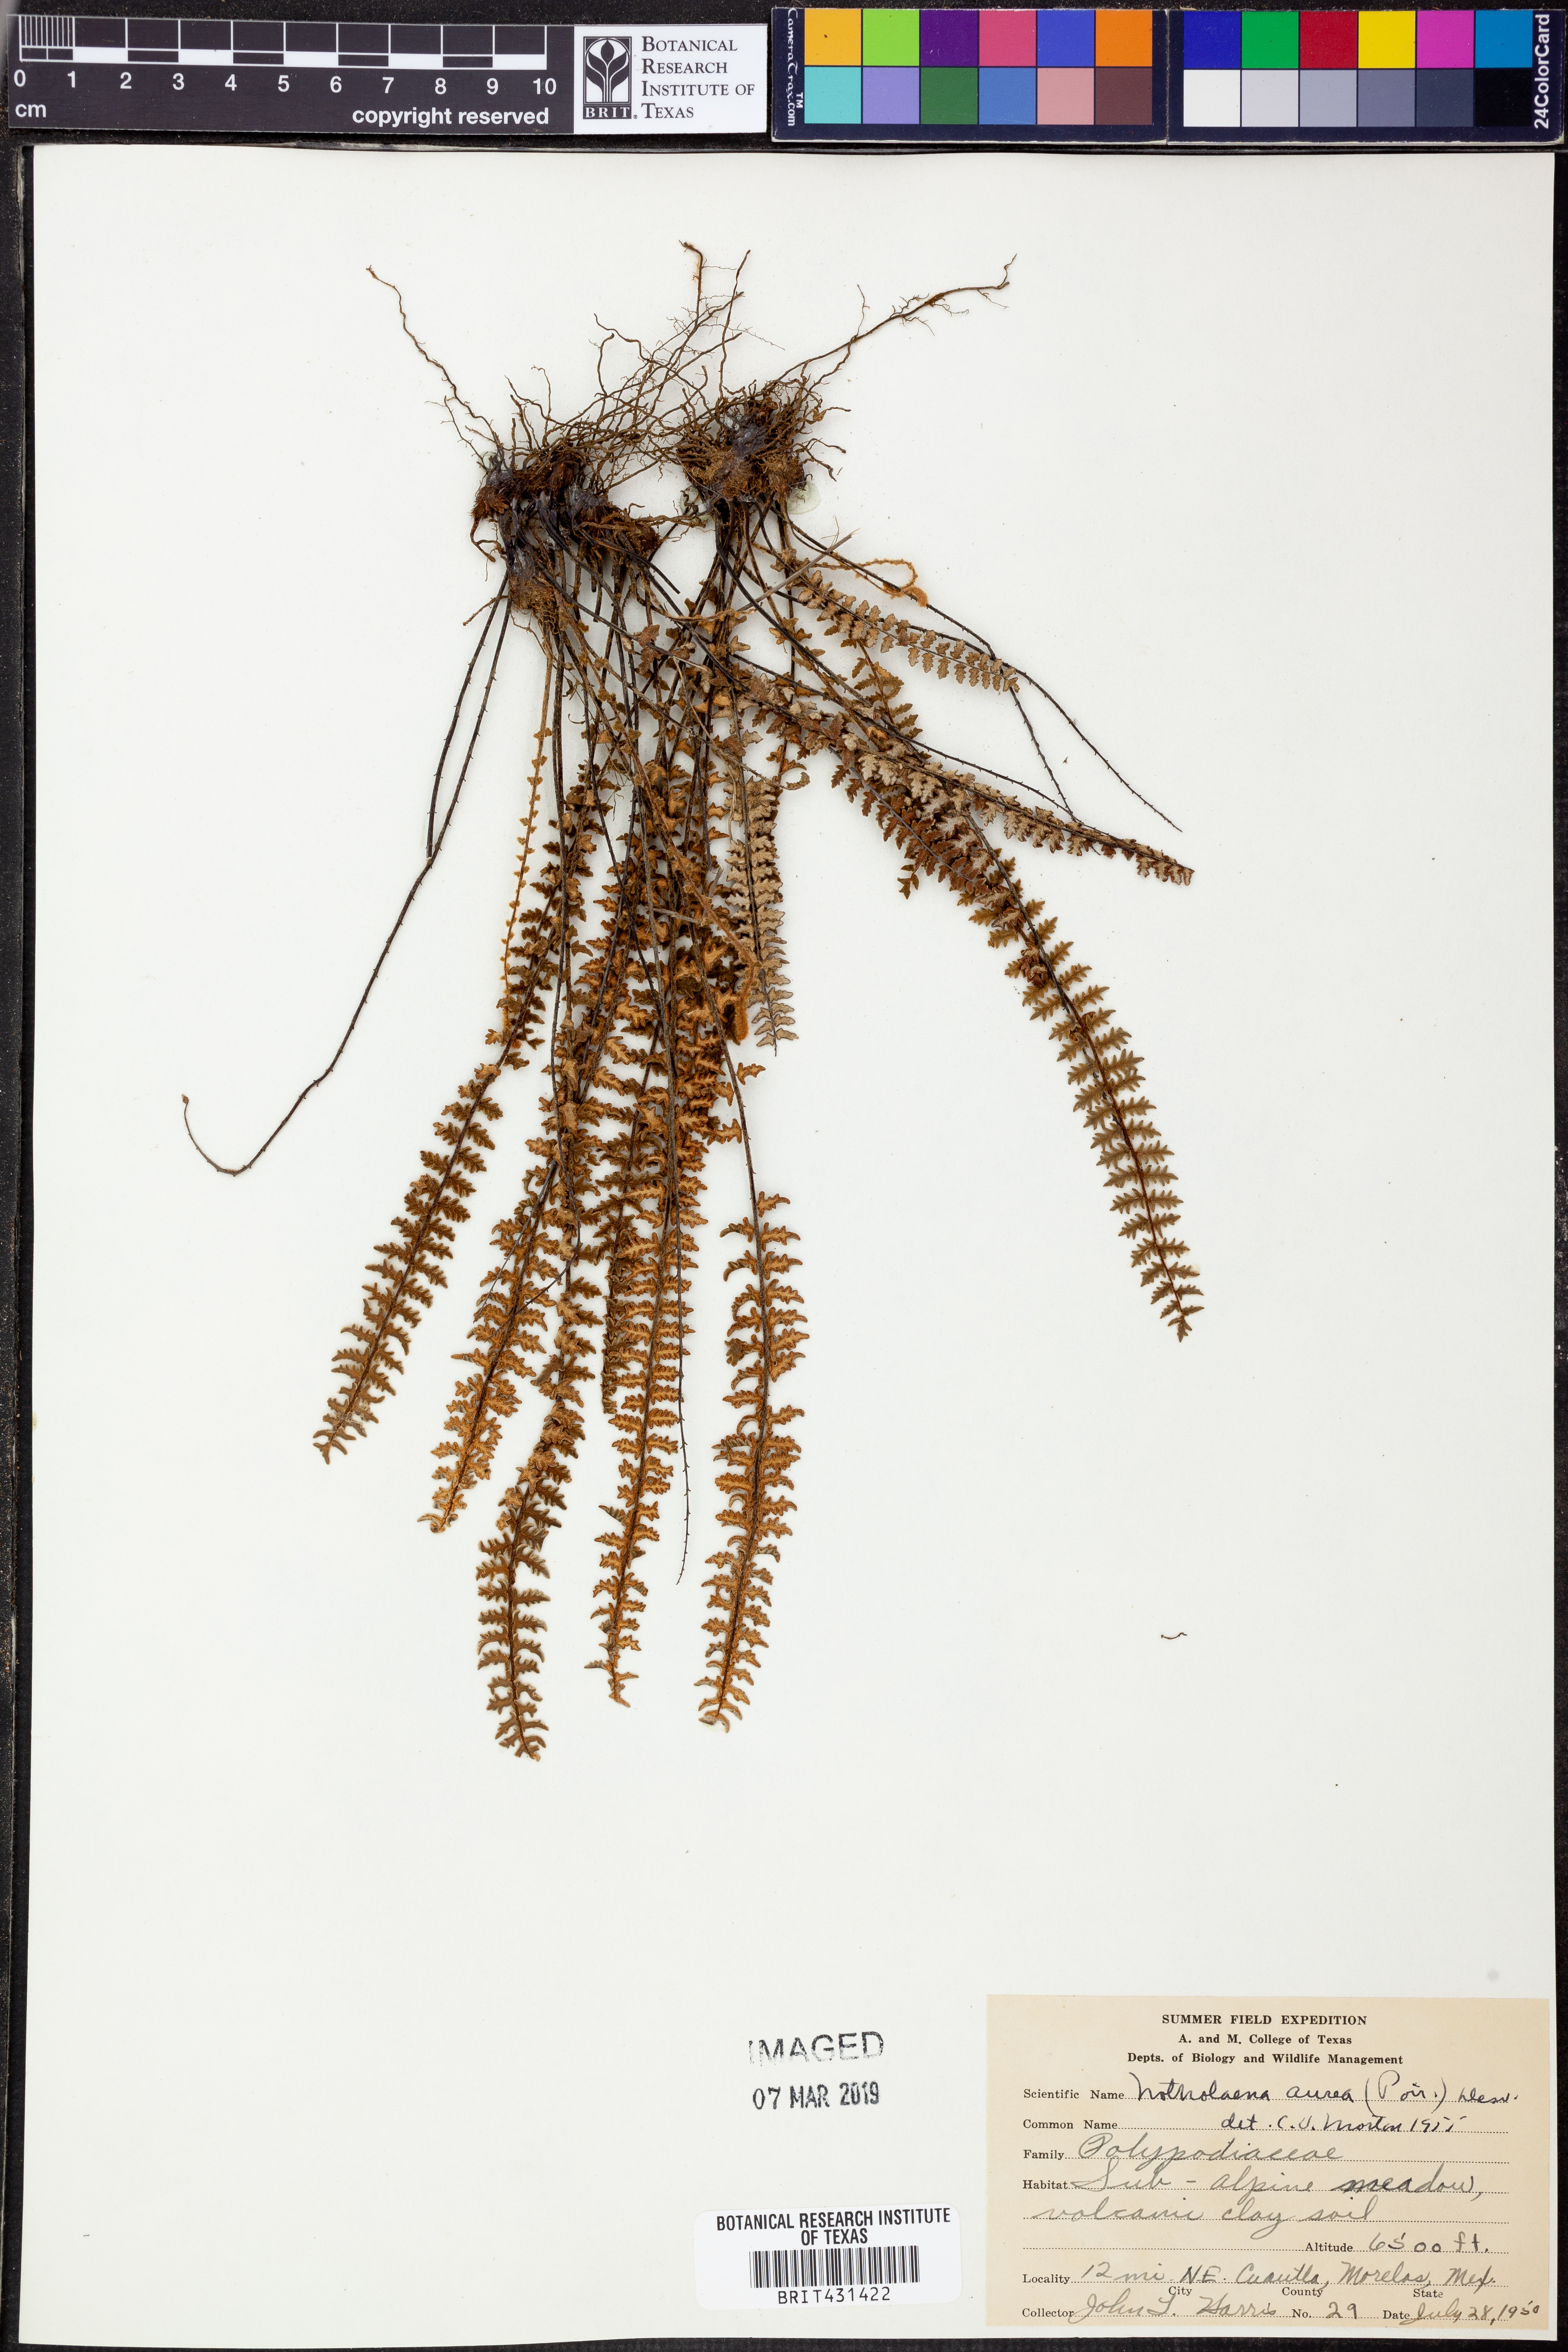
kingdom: Plantae
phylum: Tracheophyta
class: Polypodiopsida
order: Polypodiales
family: Pteridaceae
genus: Myriopteris
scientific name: Myriopteris aurea
